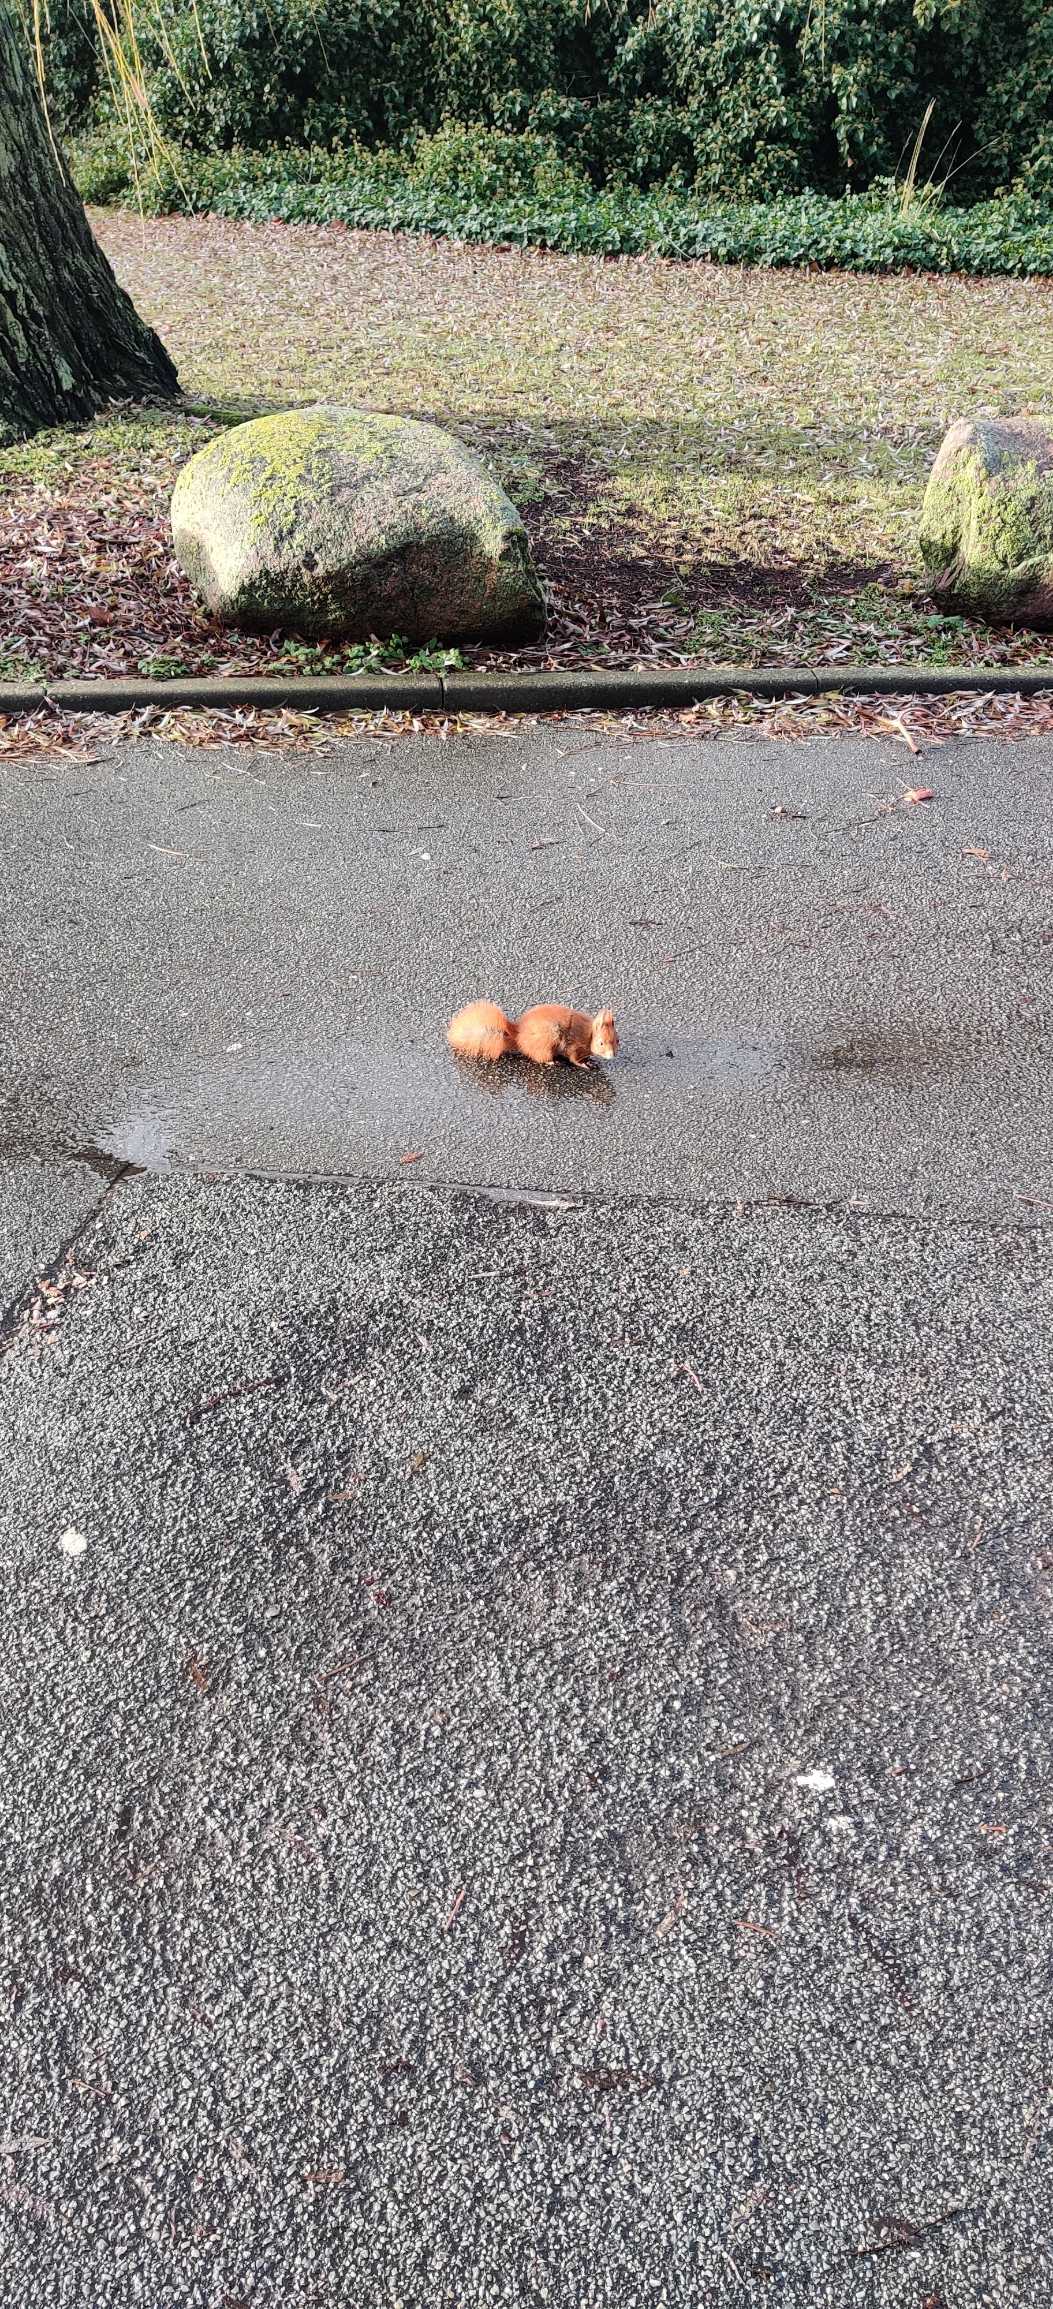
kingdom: Animalia
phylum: Chordata
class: Mammalia
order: Rodentia
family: Sciuridae
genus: Sciurus
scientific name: Sciurus vulgaris
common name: Egern
